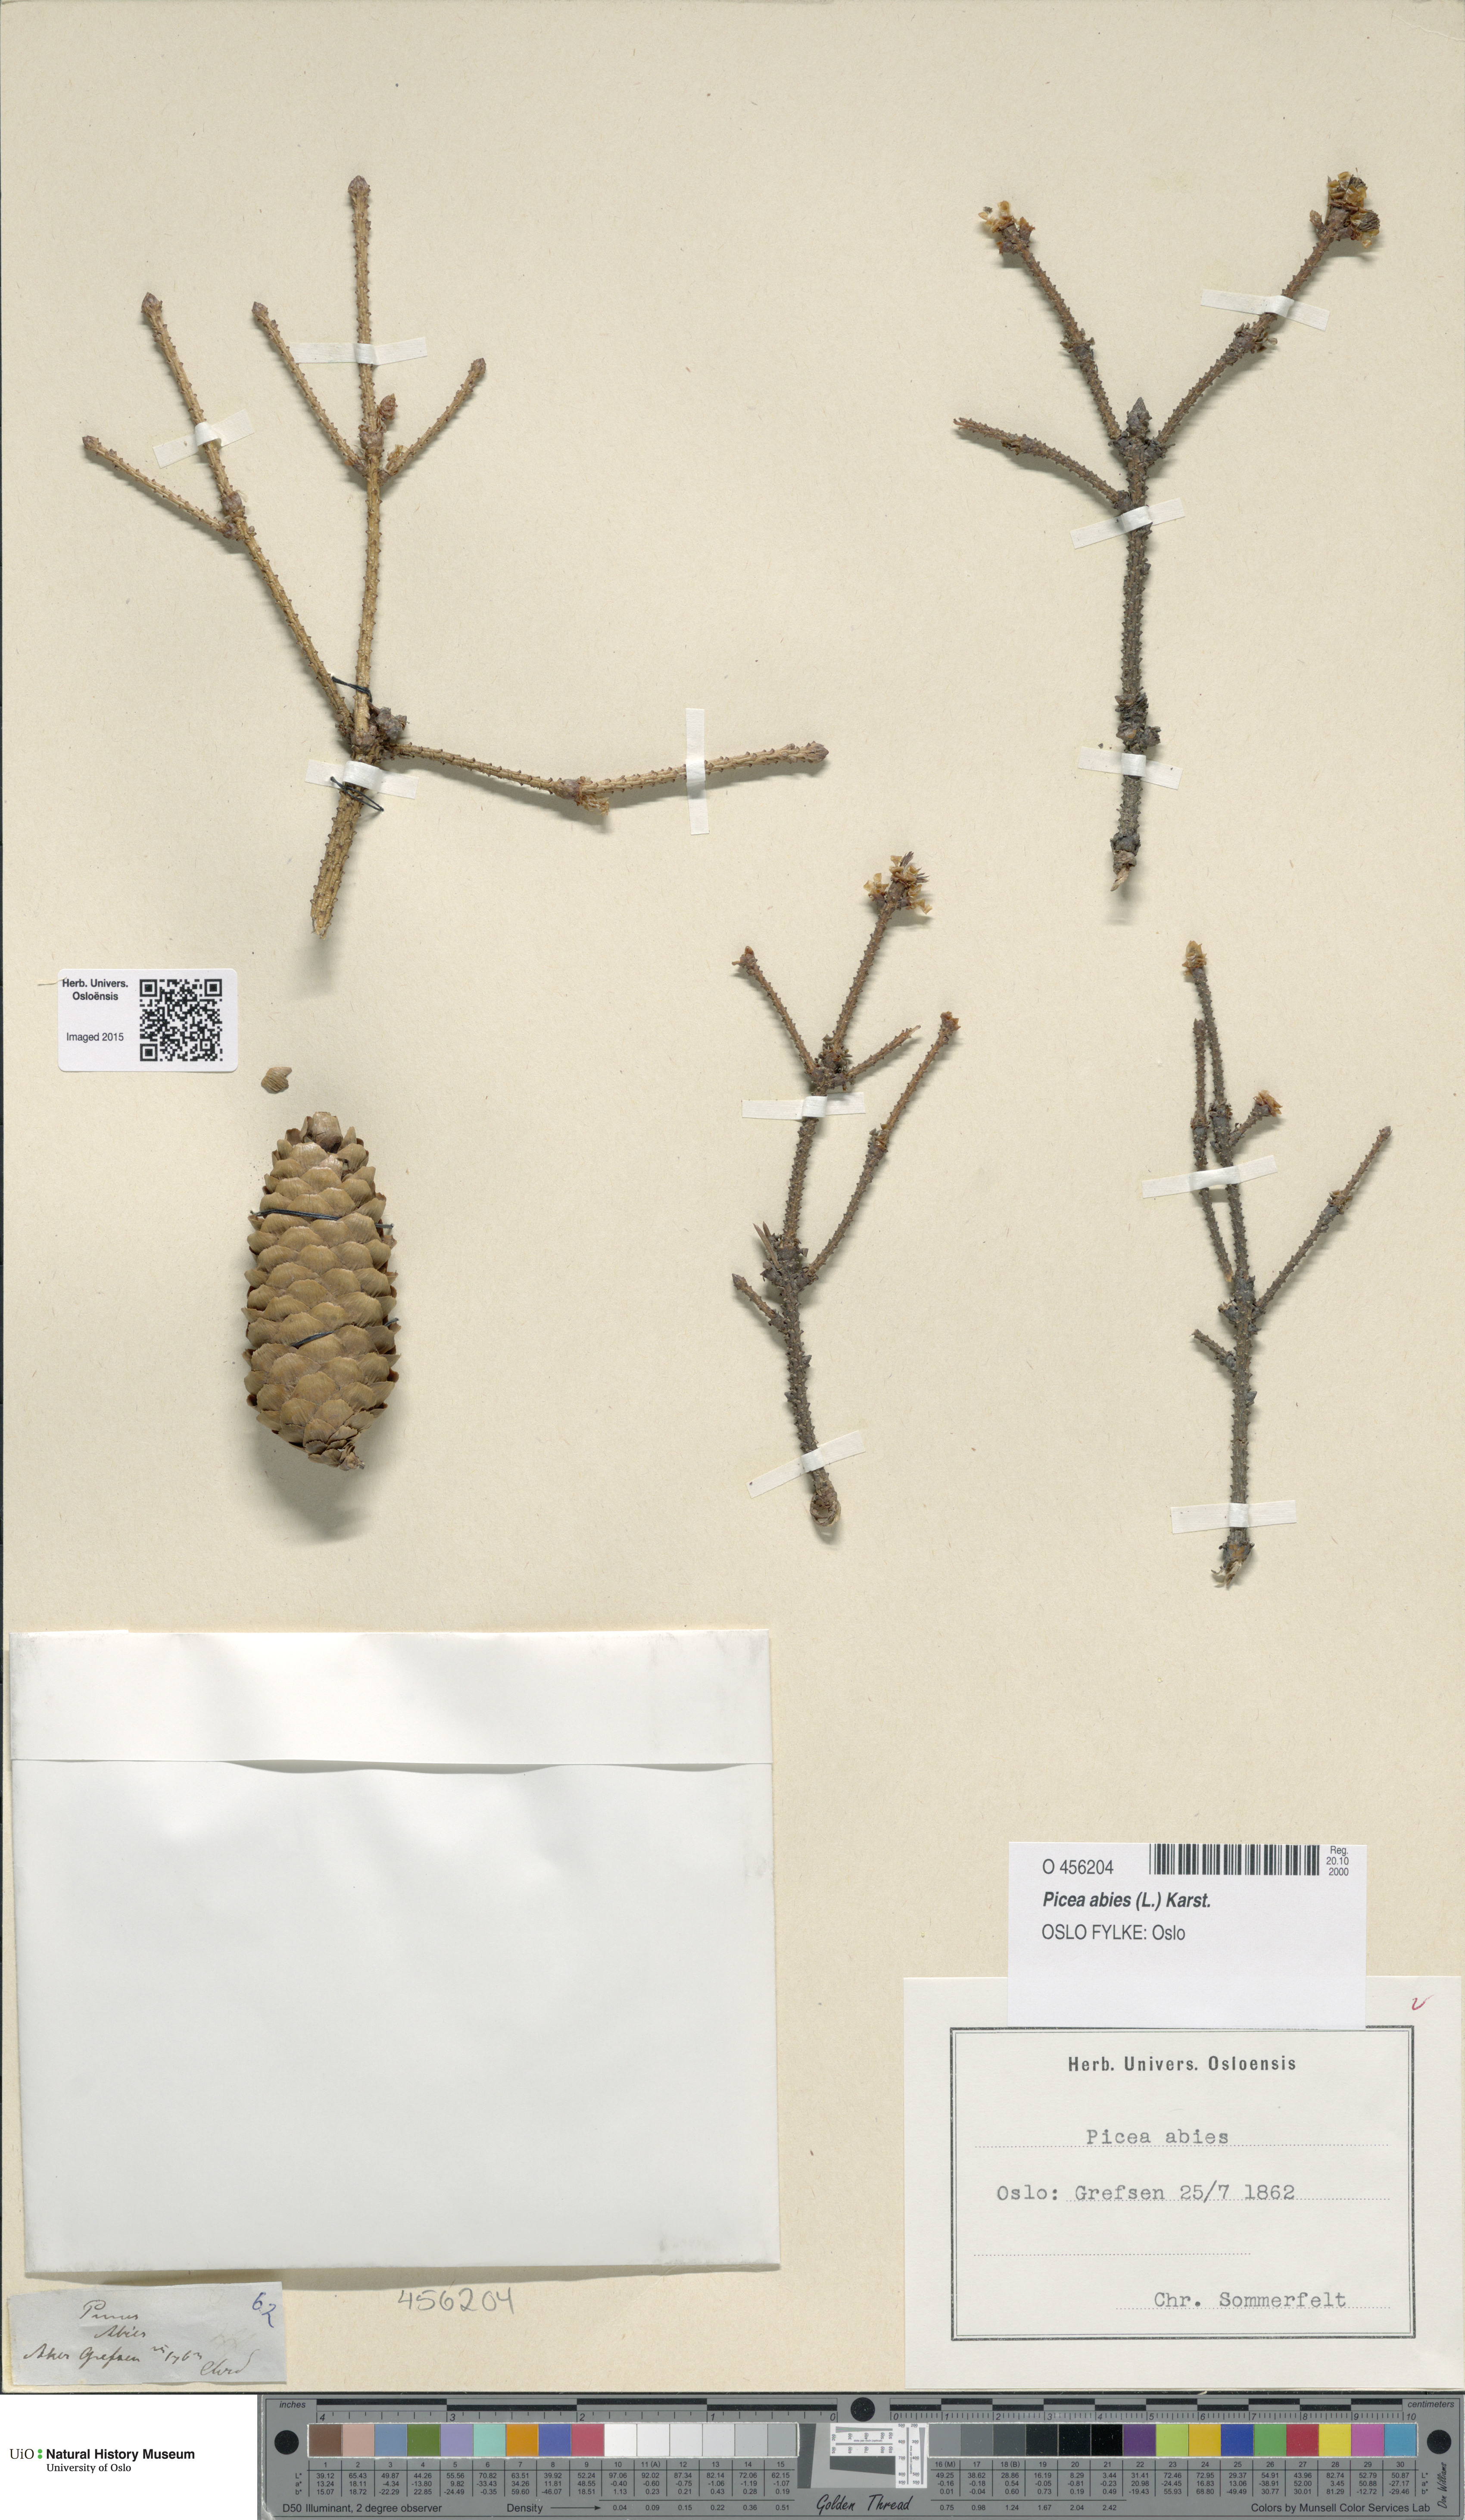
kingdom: Plantae
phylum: Tracheophyta
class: Pinopsida
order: Pinales
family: Pinaceae
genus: Picea
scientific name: Picea abies
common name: Norway spruce
